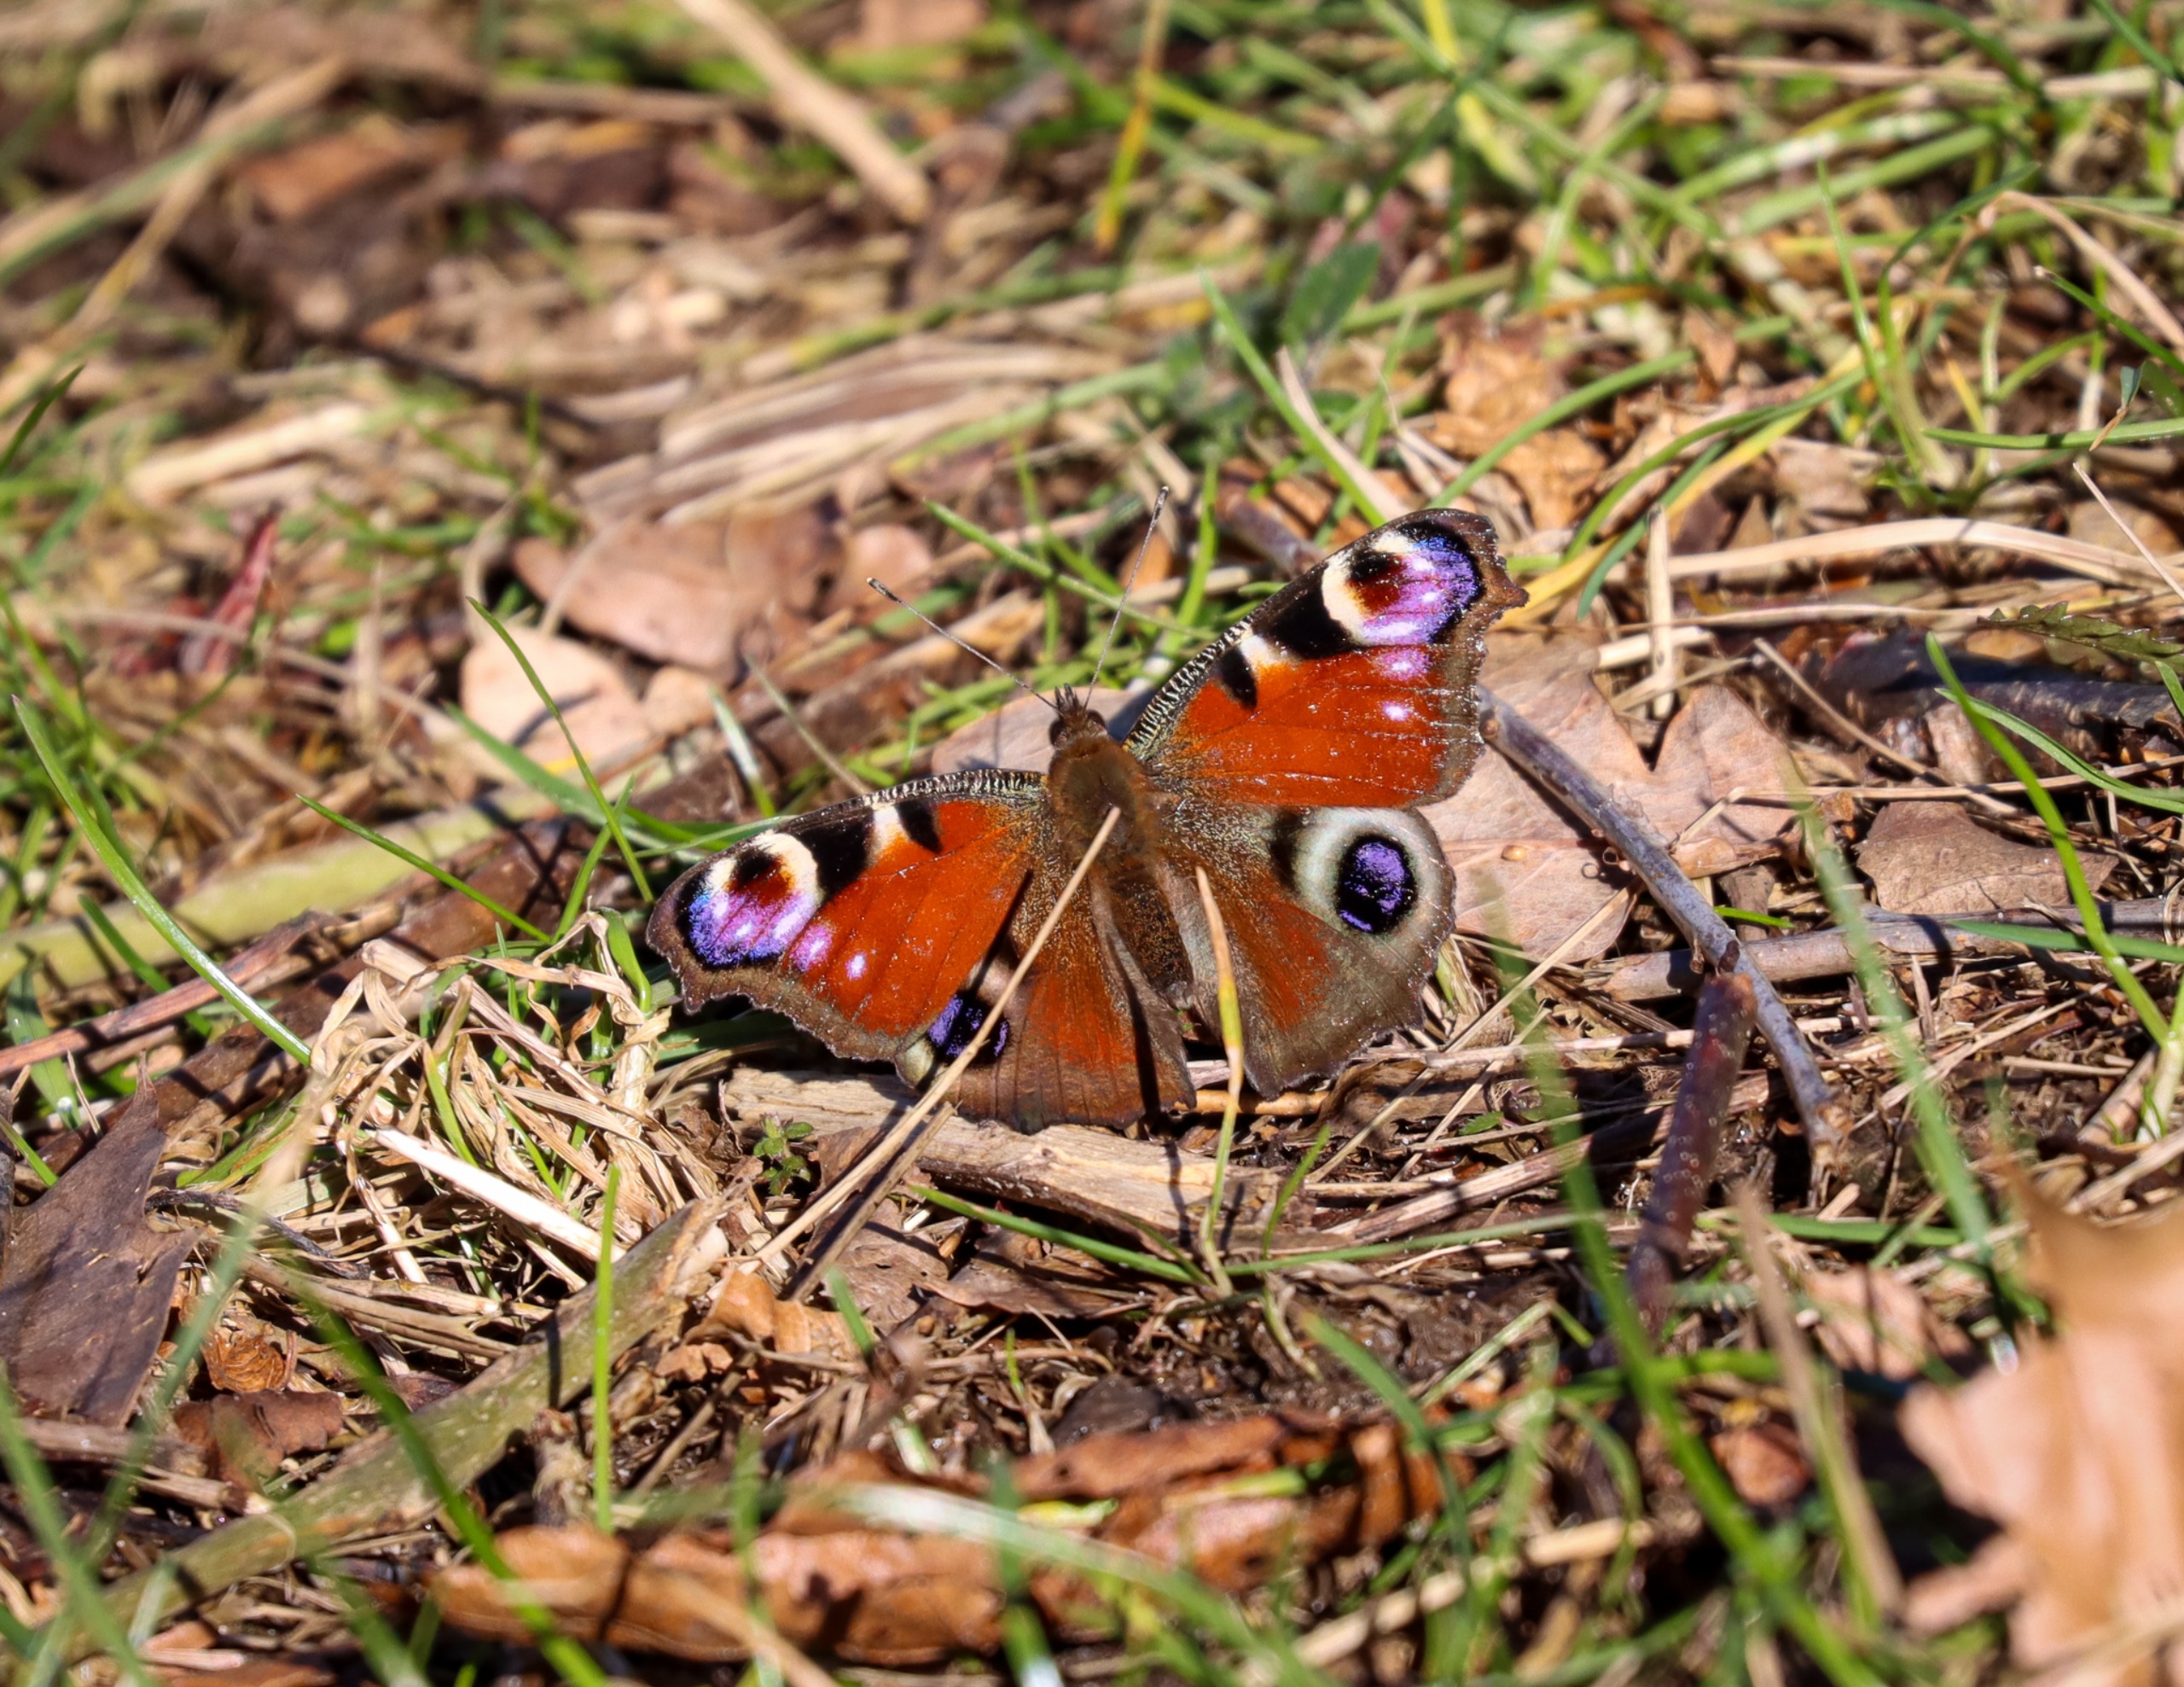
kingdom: Animalia
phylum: Arthropoda
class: Insecta
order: Lepidoptera
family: Nymphalidae
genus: Aglais
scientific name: Aglais io
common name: Dagpåfugleøje
